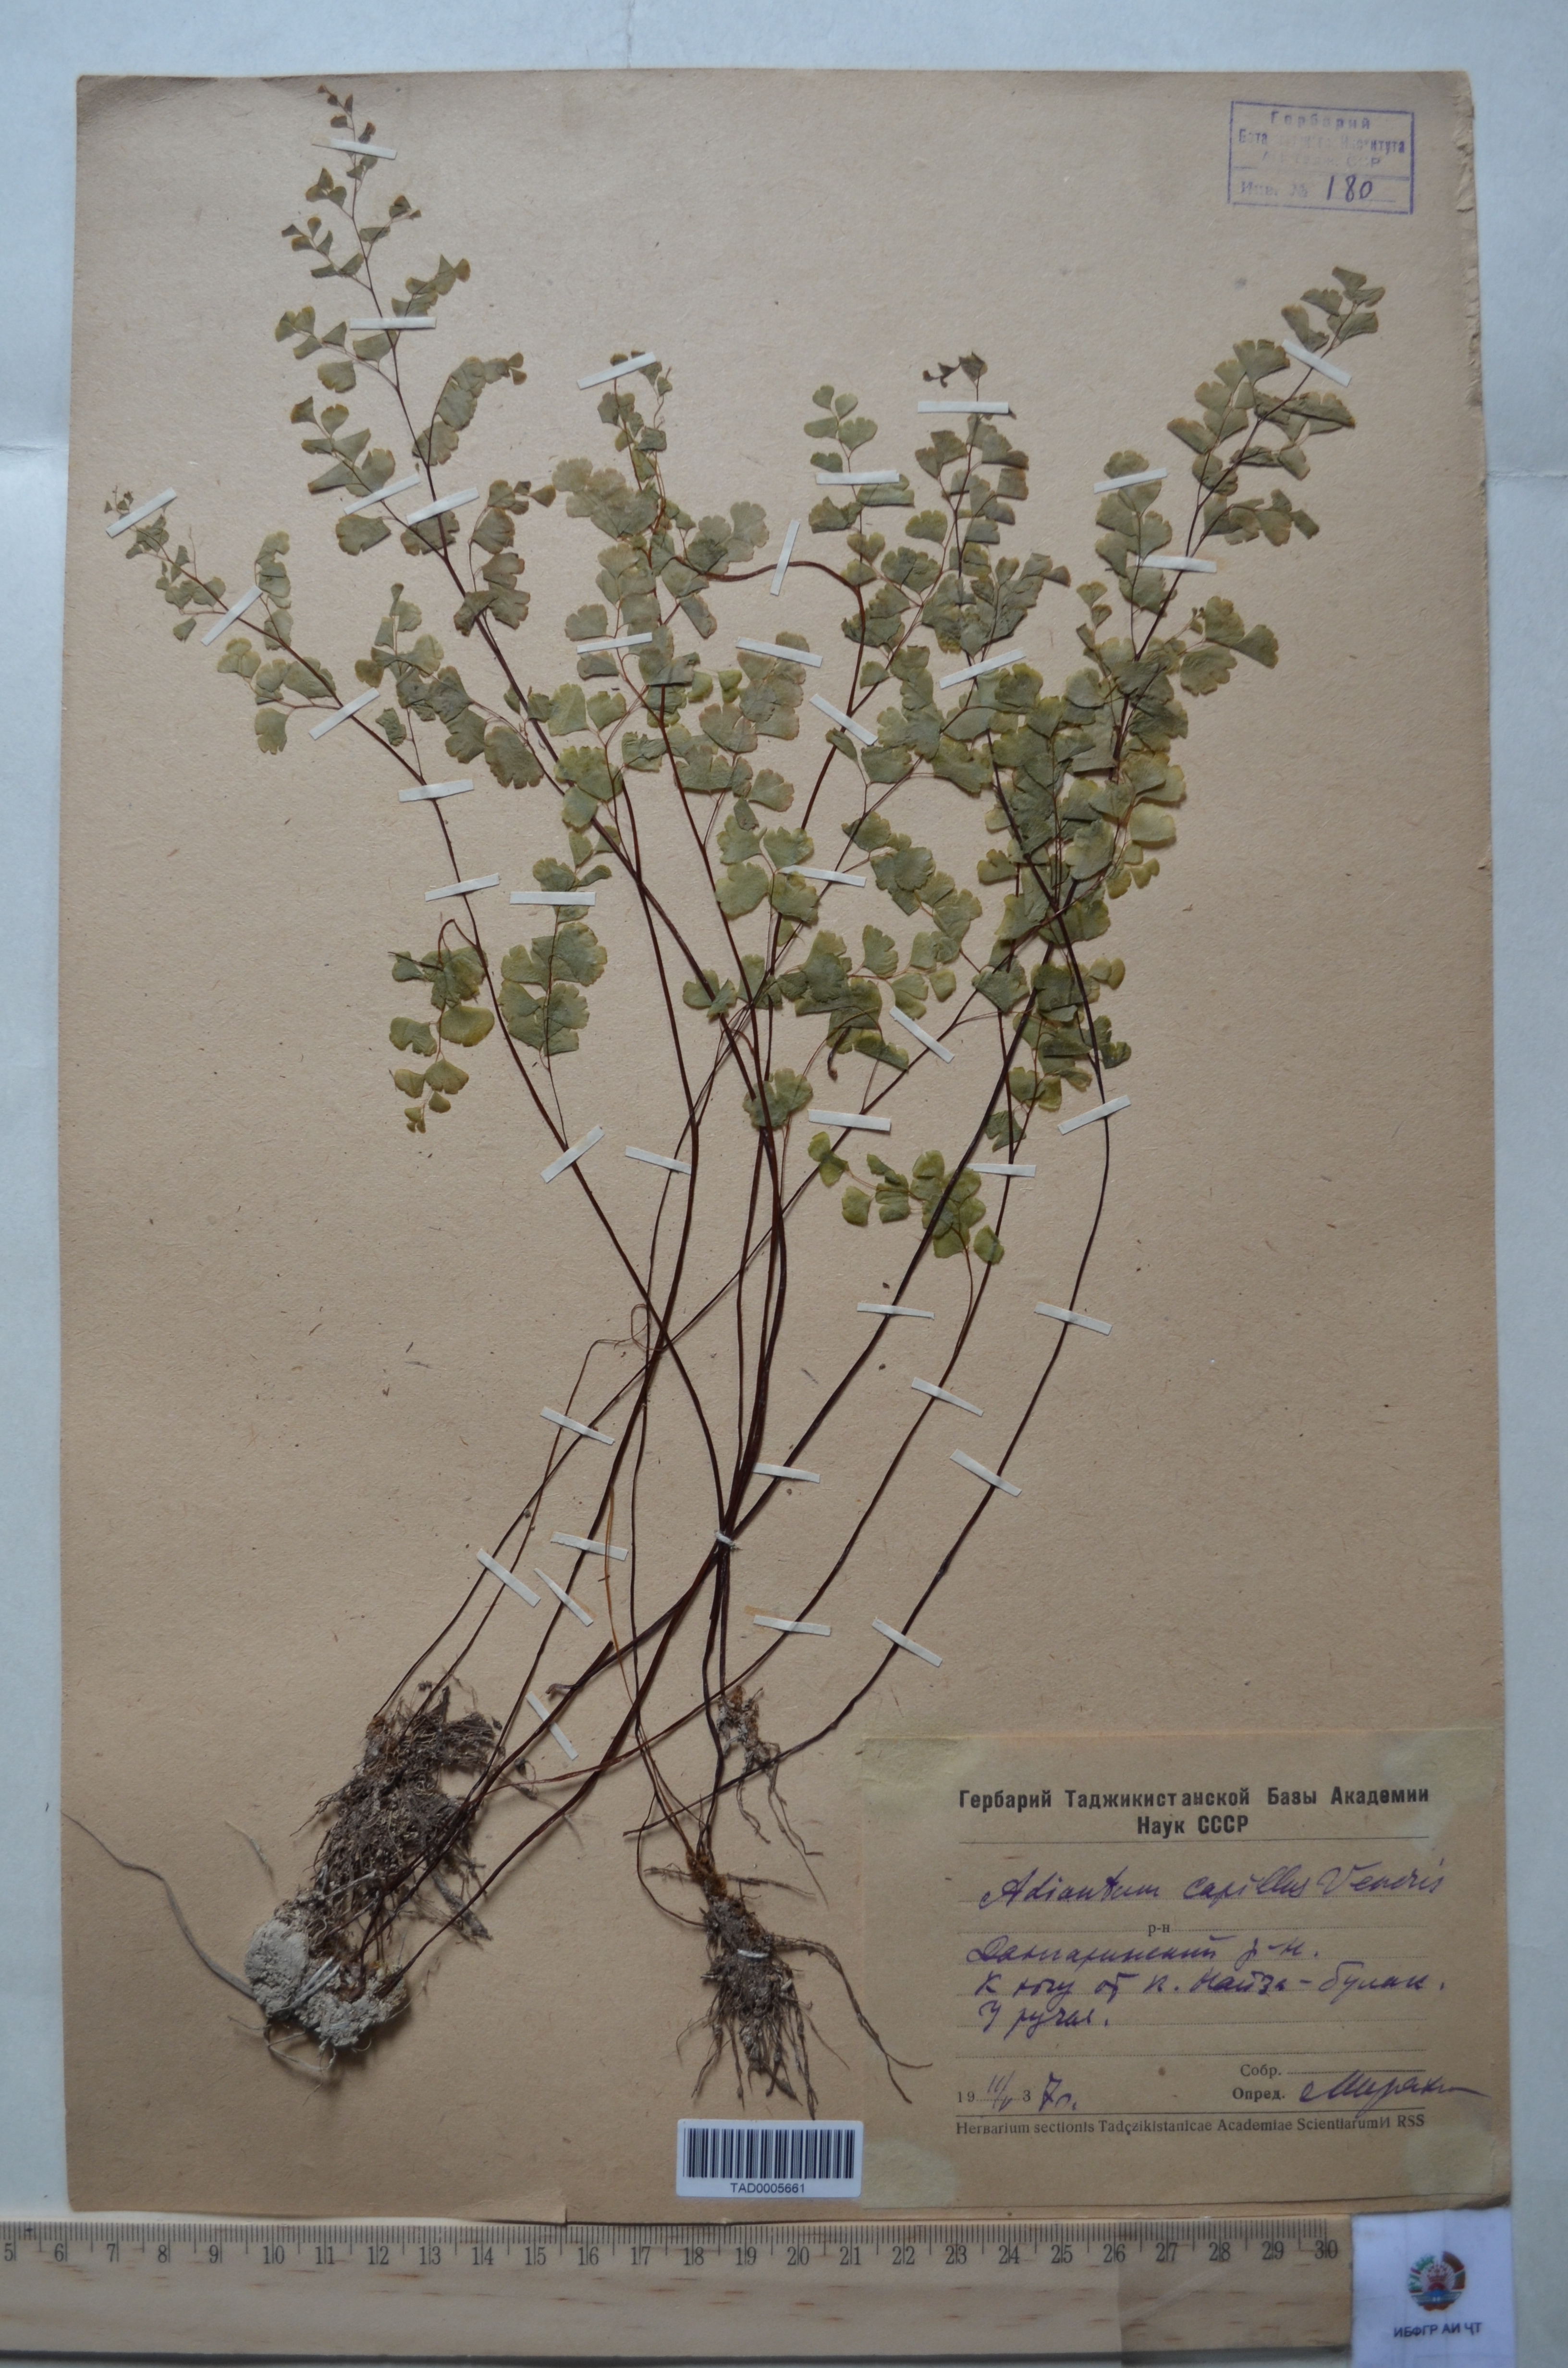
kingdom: Plantae
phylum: Tracheophyta
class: Polypodiopsida
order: Polypodiales
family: Pteridaceae
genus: Adiantum
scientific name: Adiantum capillus-veneris
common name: Maidenhair fern
